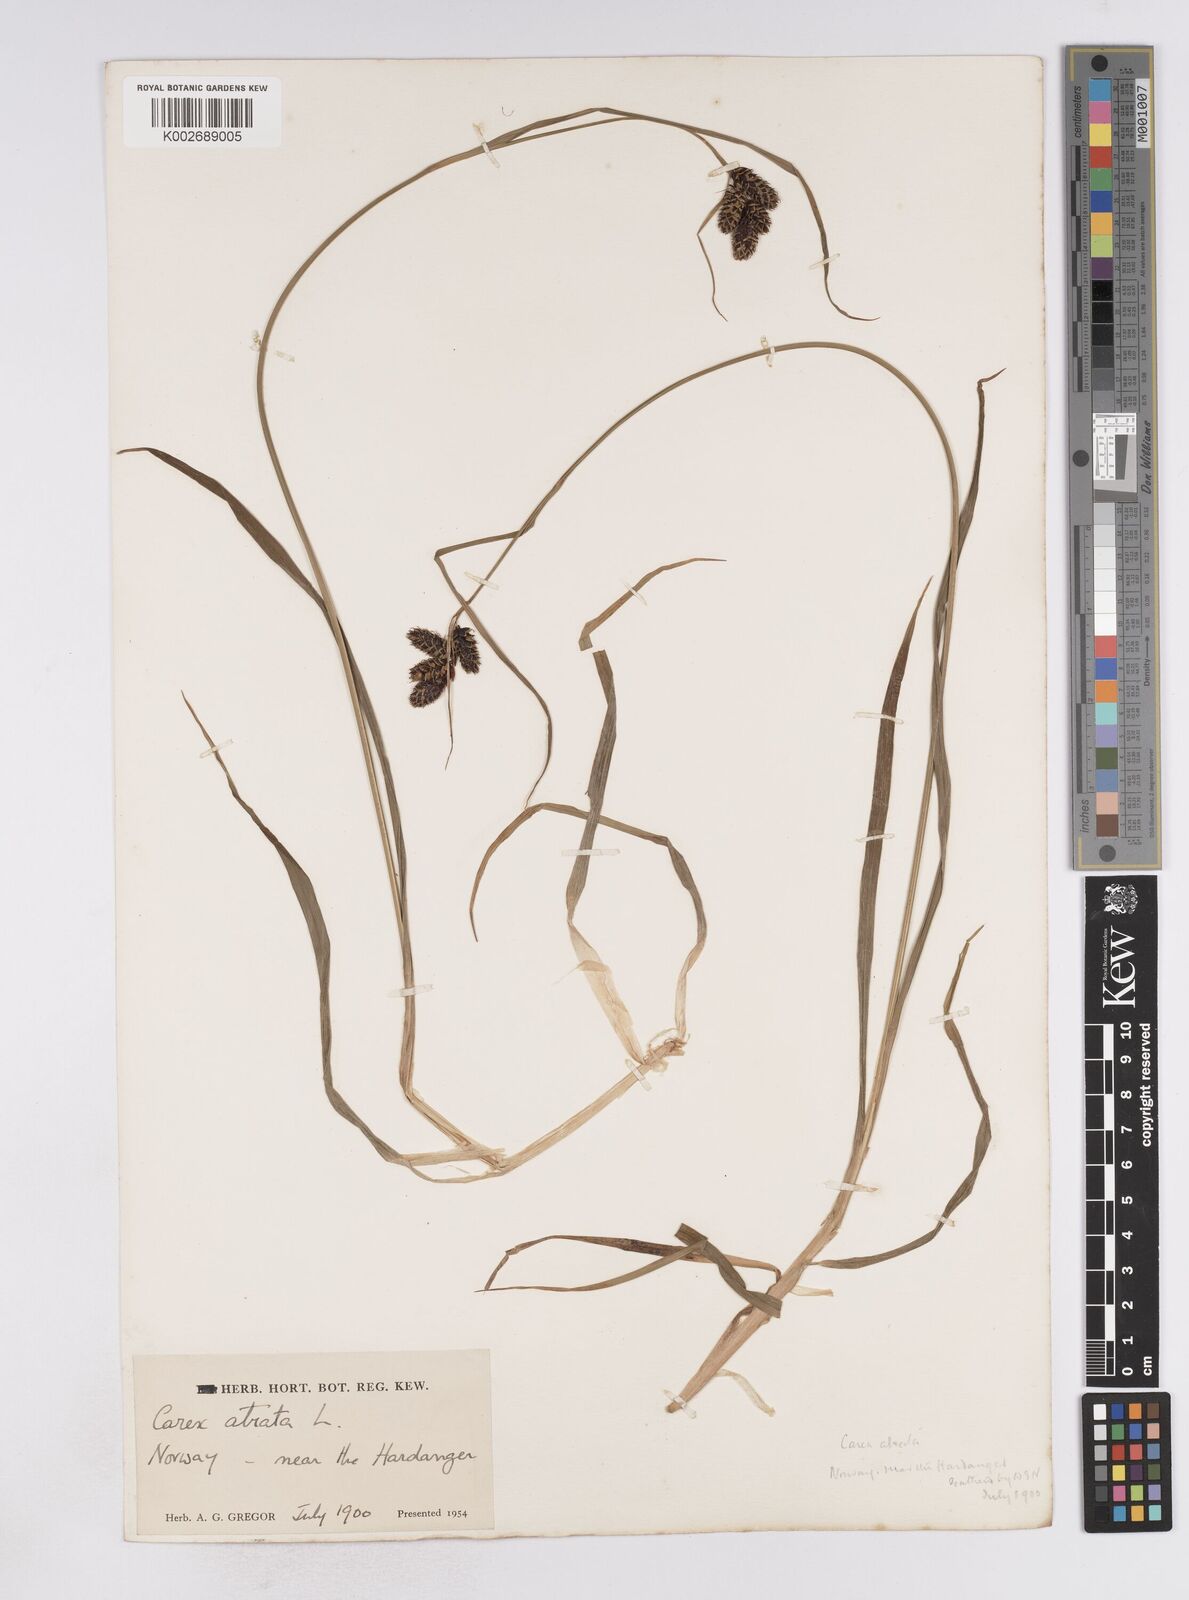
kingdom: Plantae
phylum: Tracheophyta
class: Liliopsida
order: Poales
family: Cyperaceae
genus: Carex
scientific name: Carex atrata
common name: Black alpine sedge
